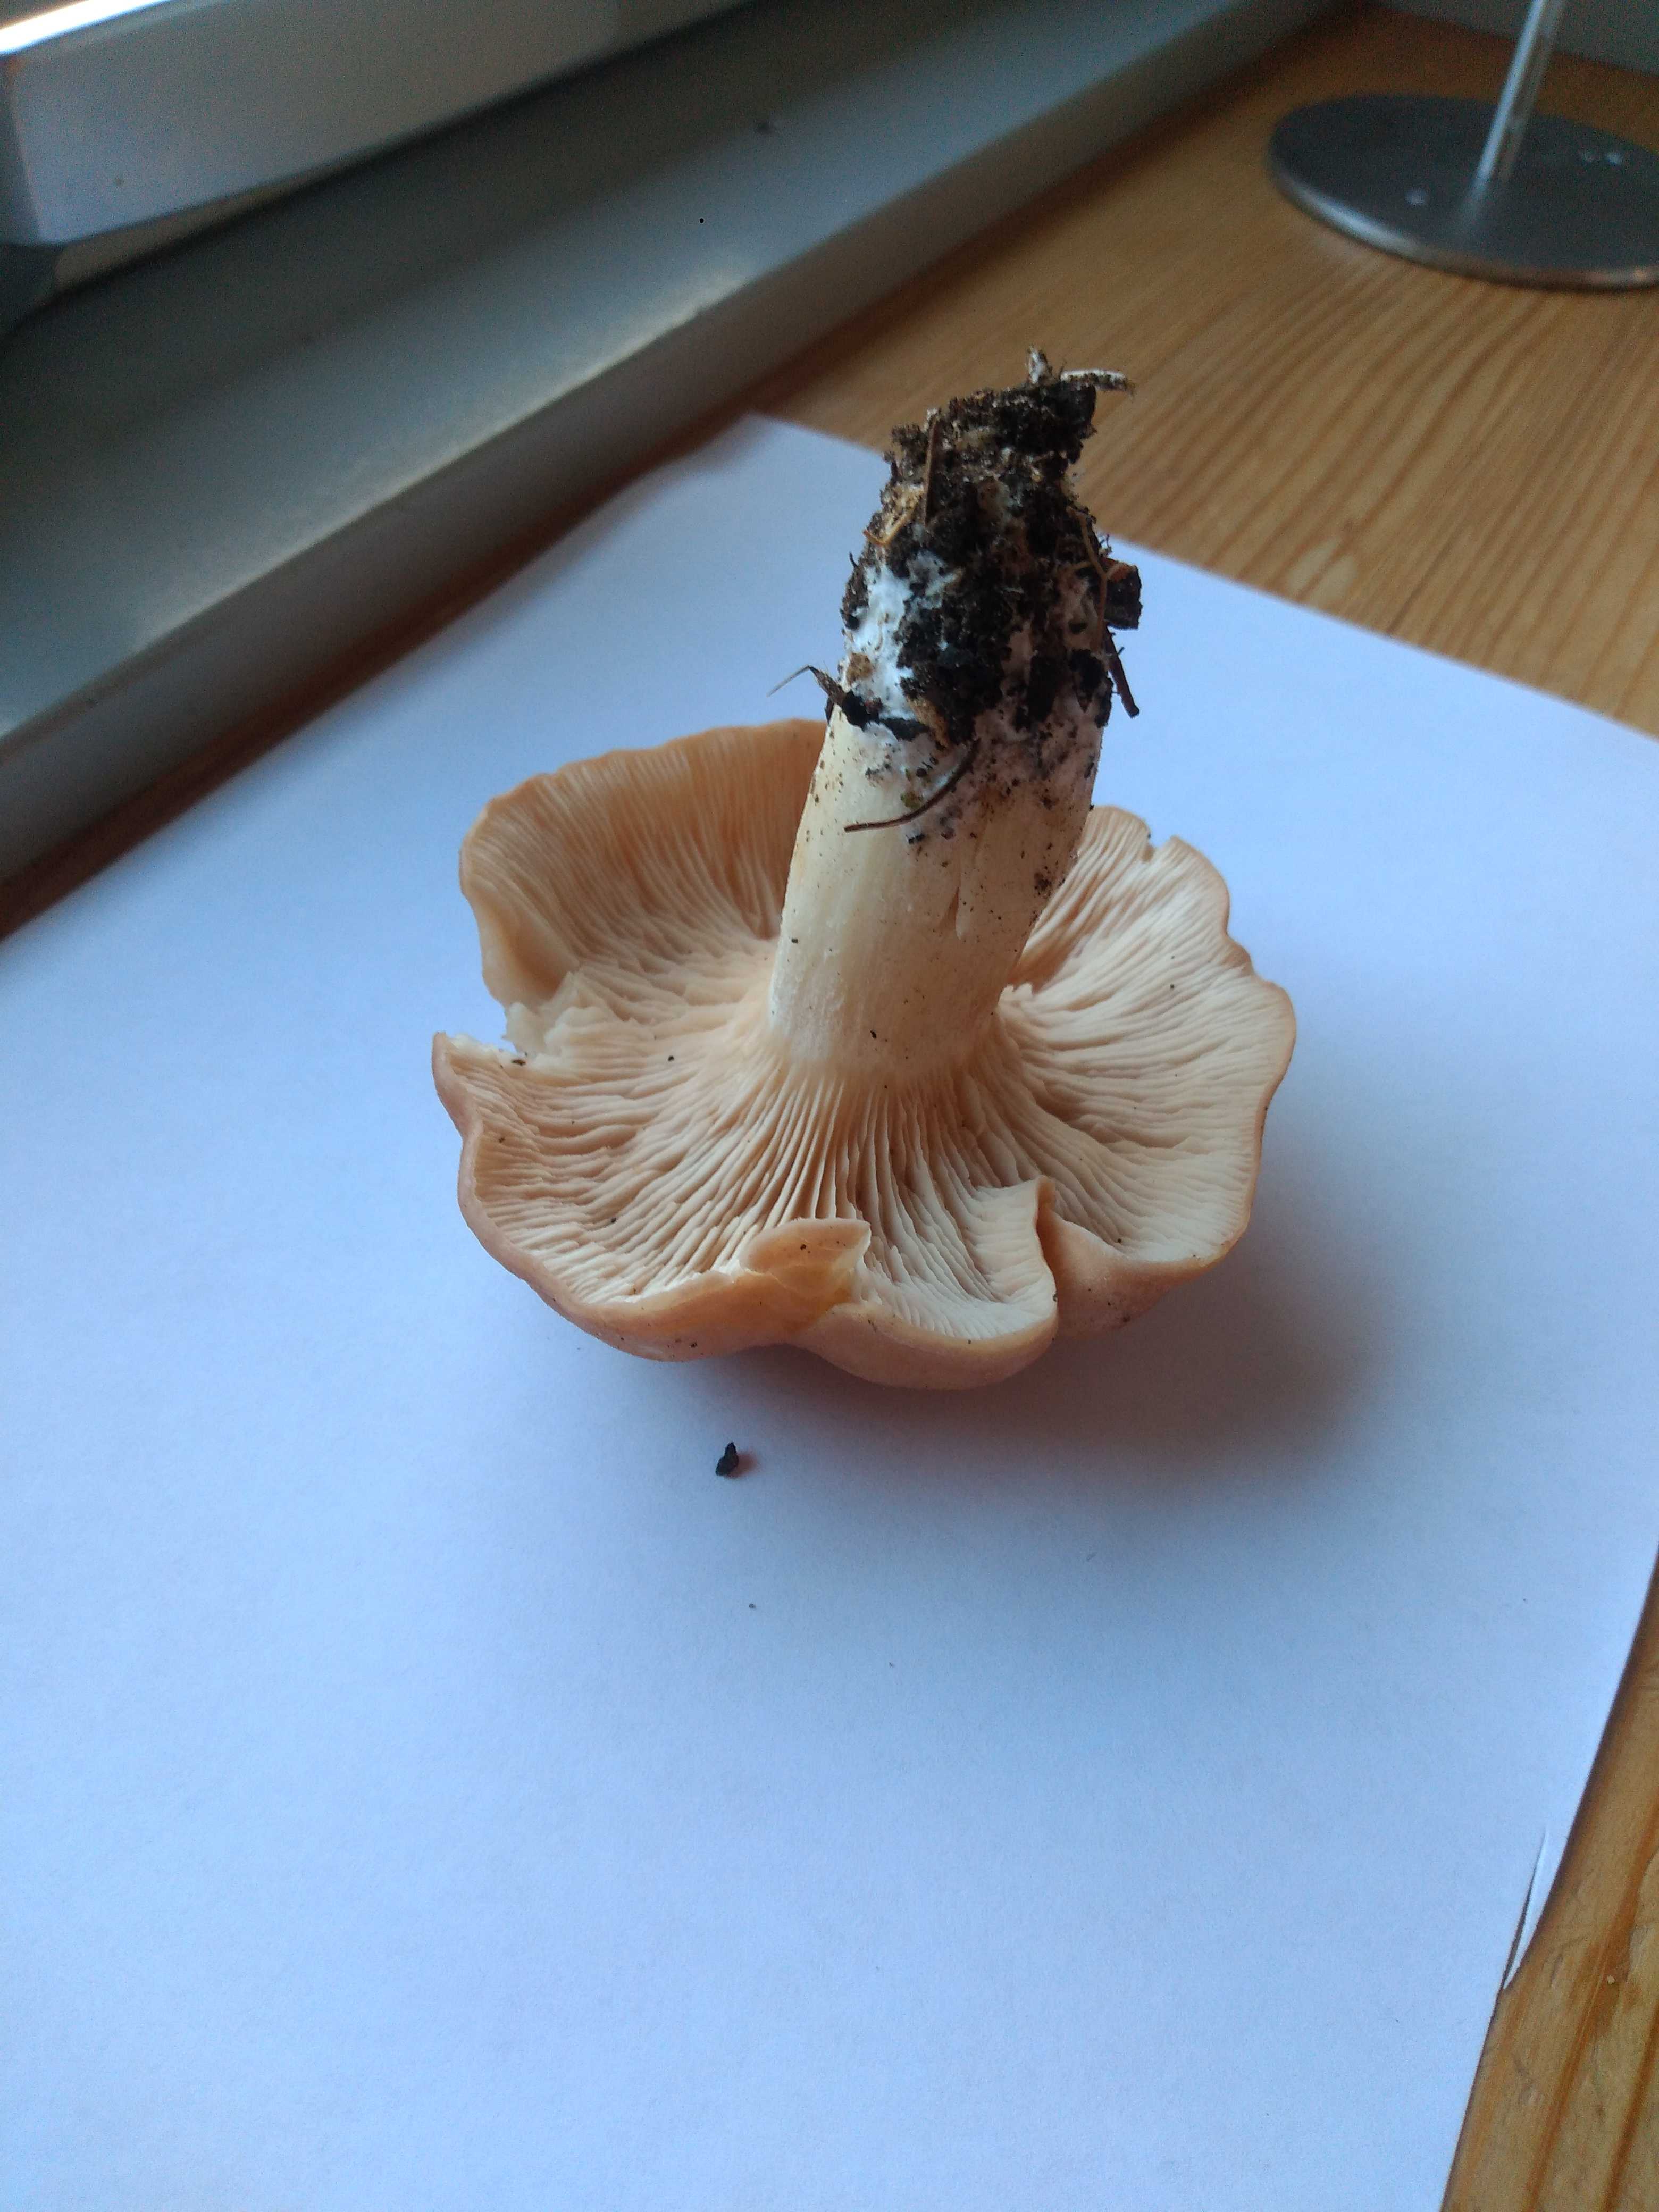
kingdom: Fungi
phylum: Basidiomycota
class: Agaricomycetes
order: Agaricales
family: Entolomataceae
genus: Clitopilus
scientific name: Clitopilus geminus
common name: kødfarvet troldhat
